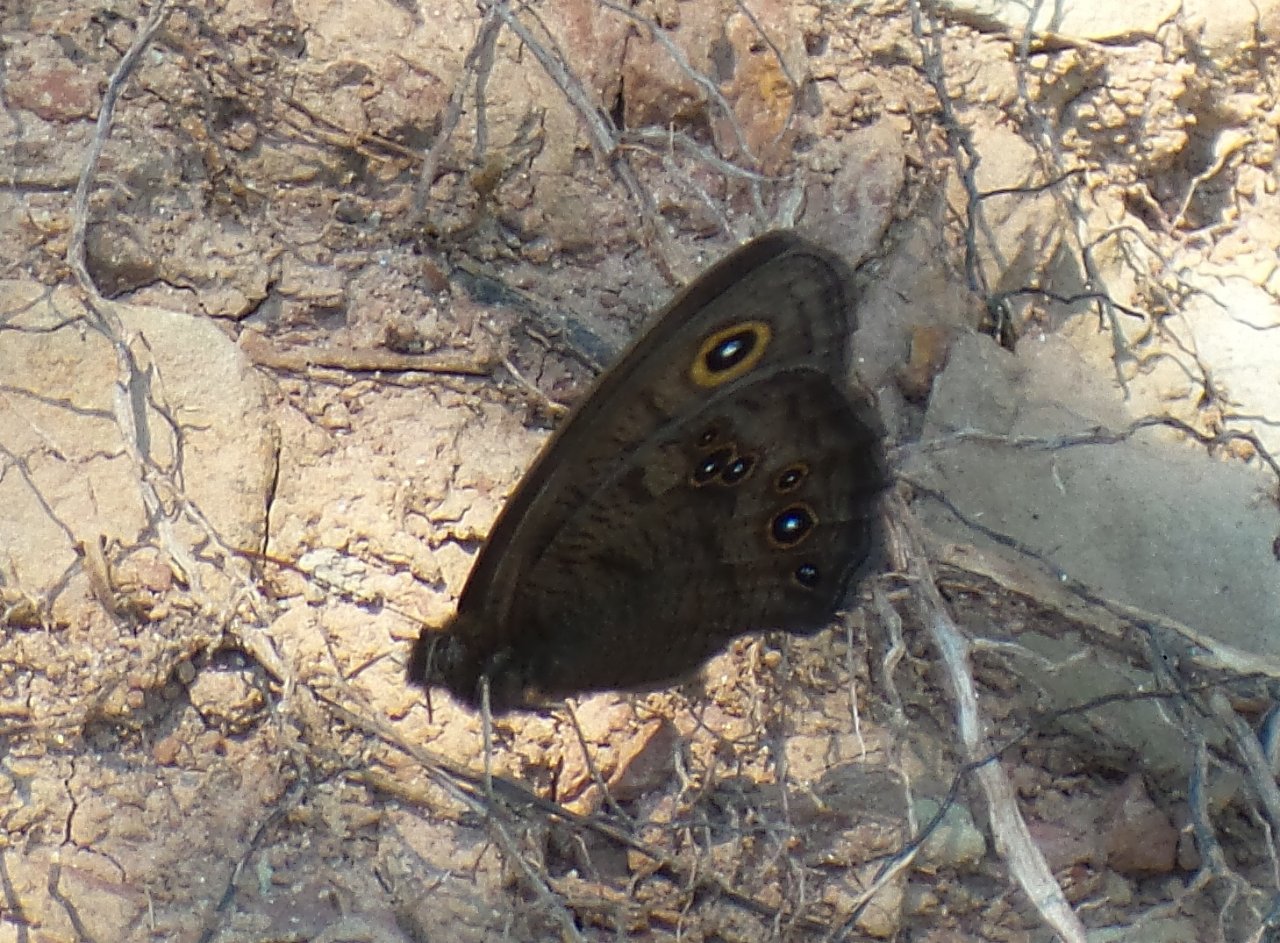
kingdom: Animalia
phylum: Arthropoda
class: Insecta
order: Lepidoptera
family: Nymphalidae
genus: Cercyonis
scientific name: Cercyonis pegala
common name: Common Wood-Nymph
